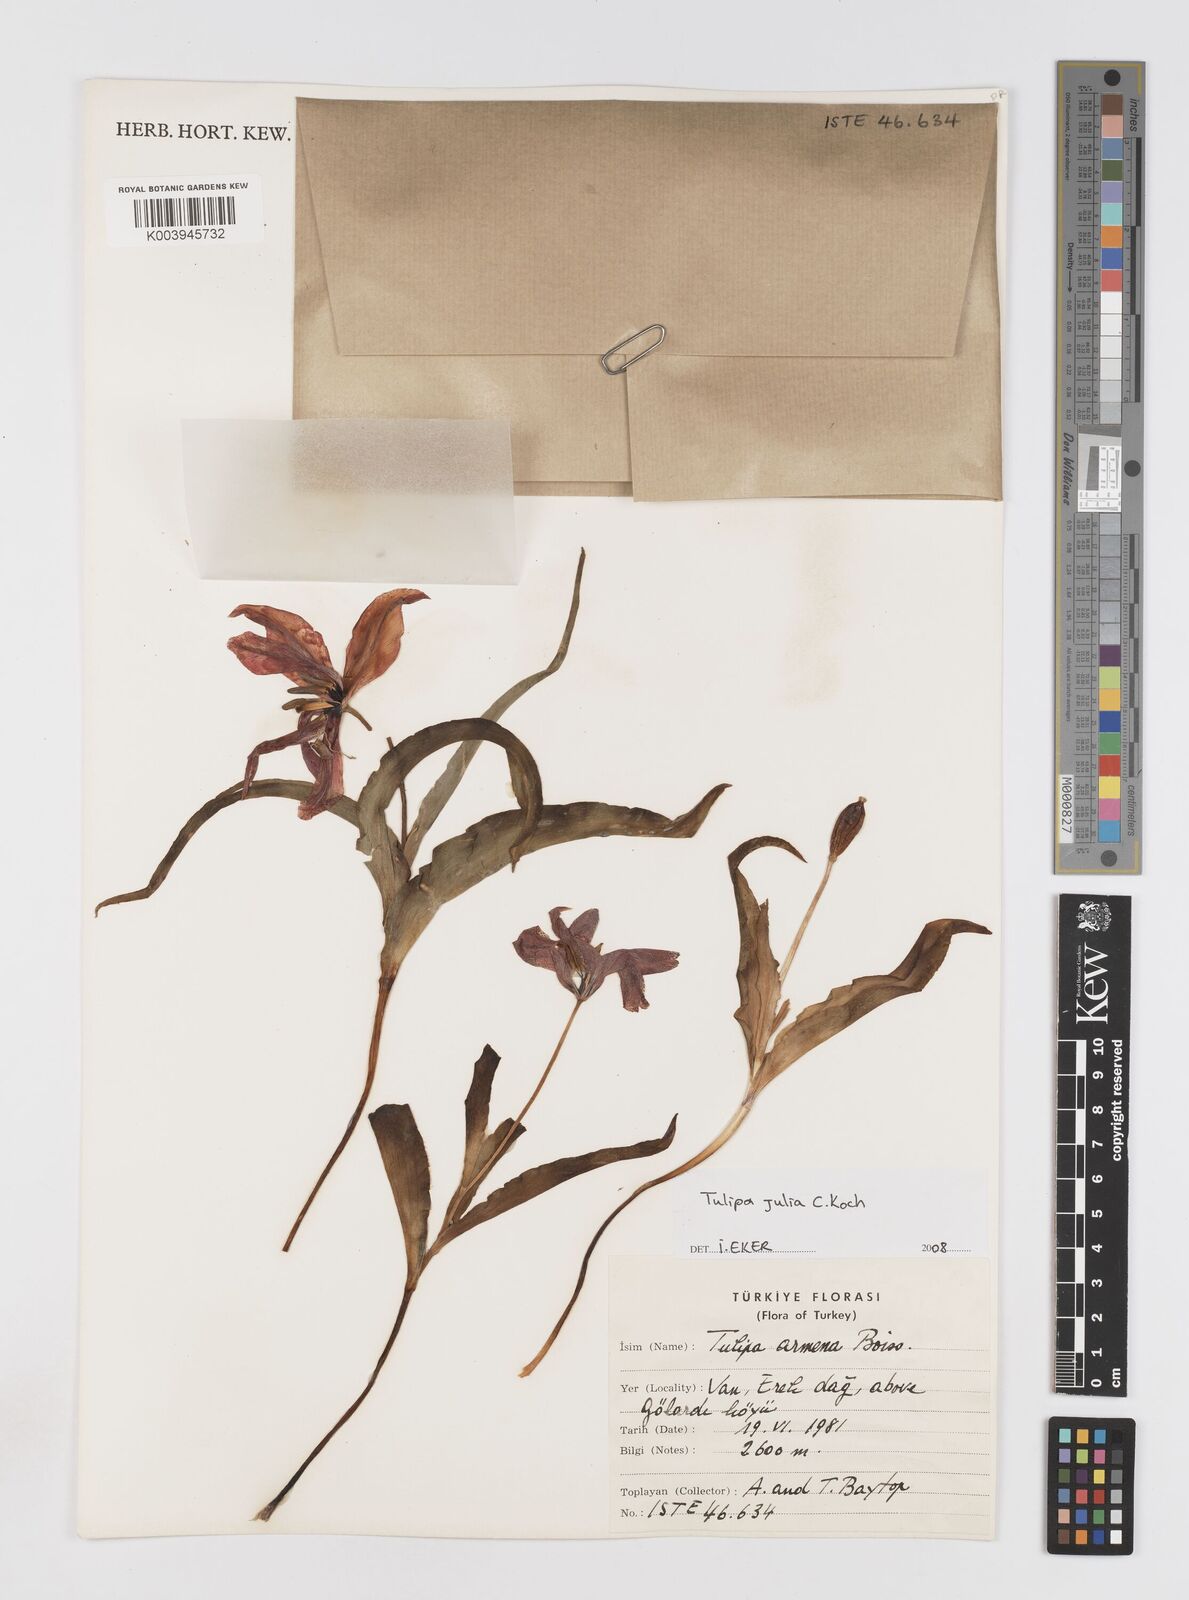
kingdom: Plantae
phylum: Tracheophyta
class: Liliopsida
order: Liliales
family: Liliaceae
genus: Tulipa
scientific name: Tulipa armena
